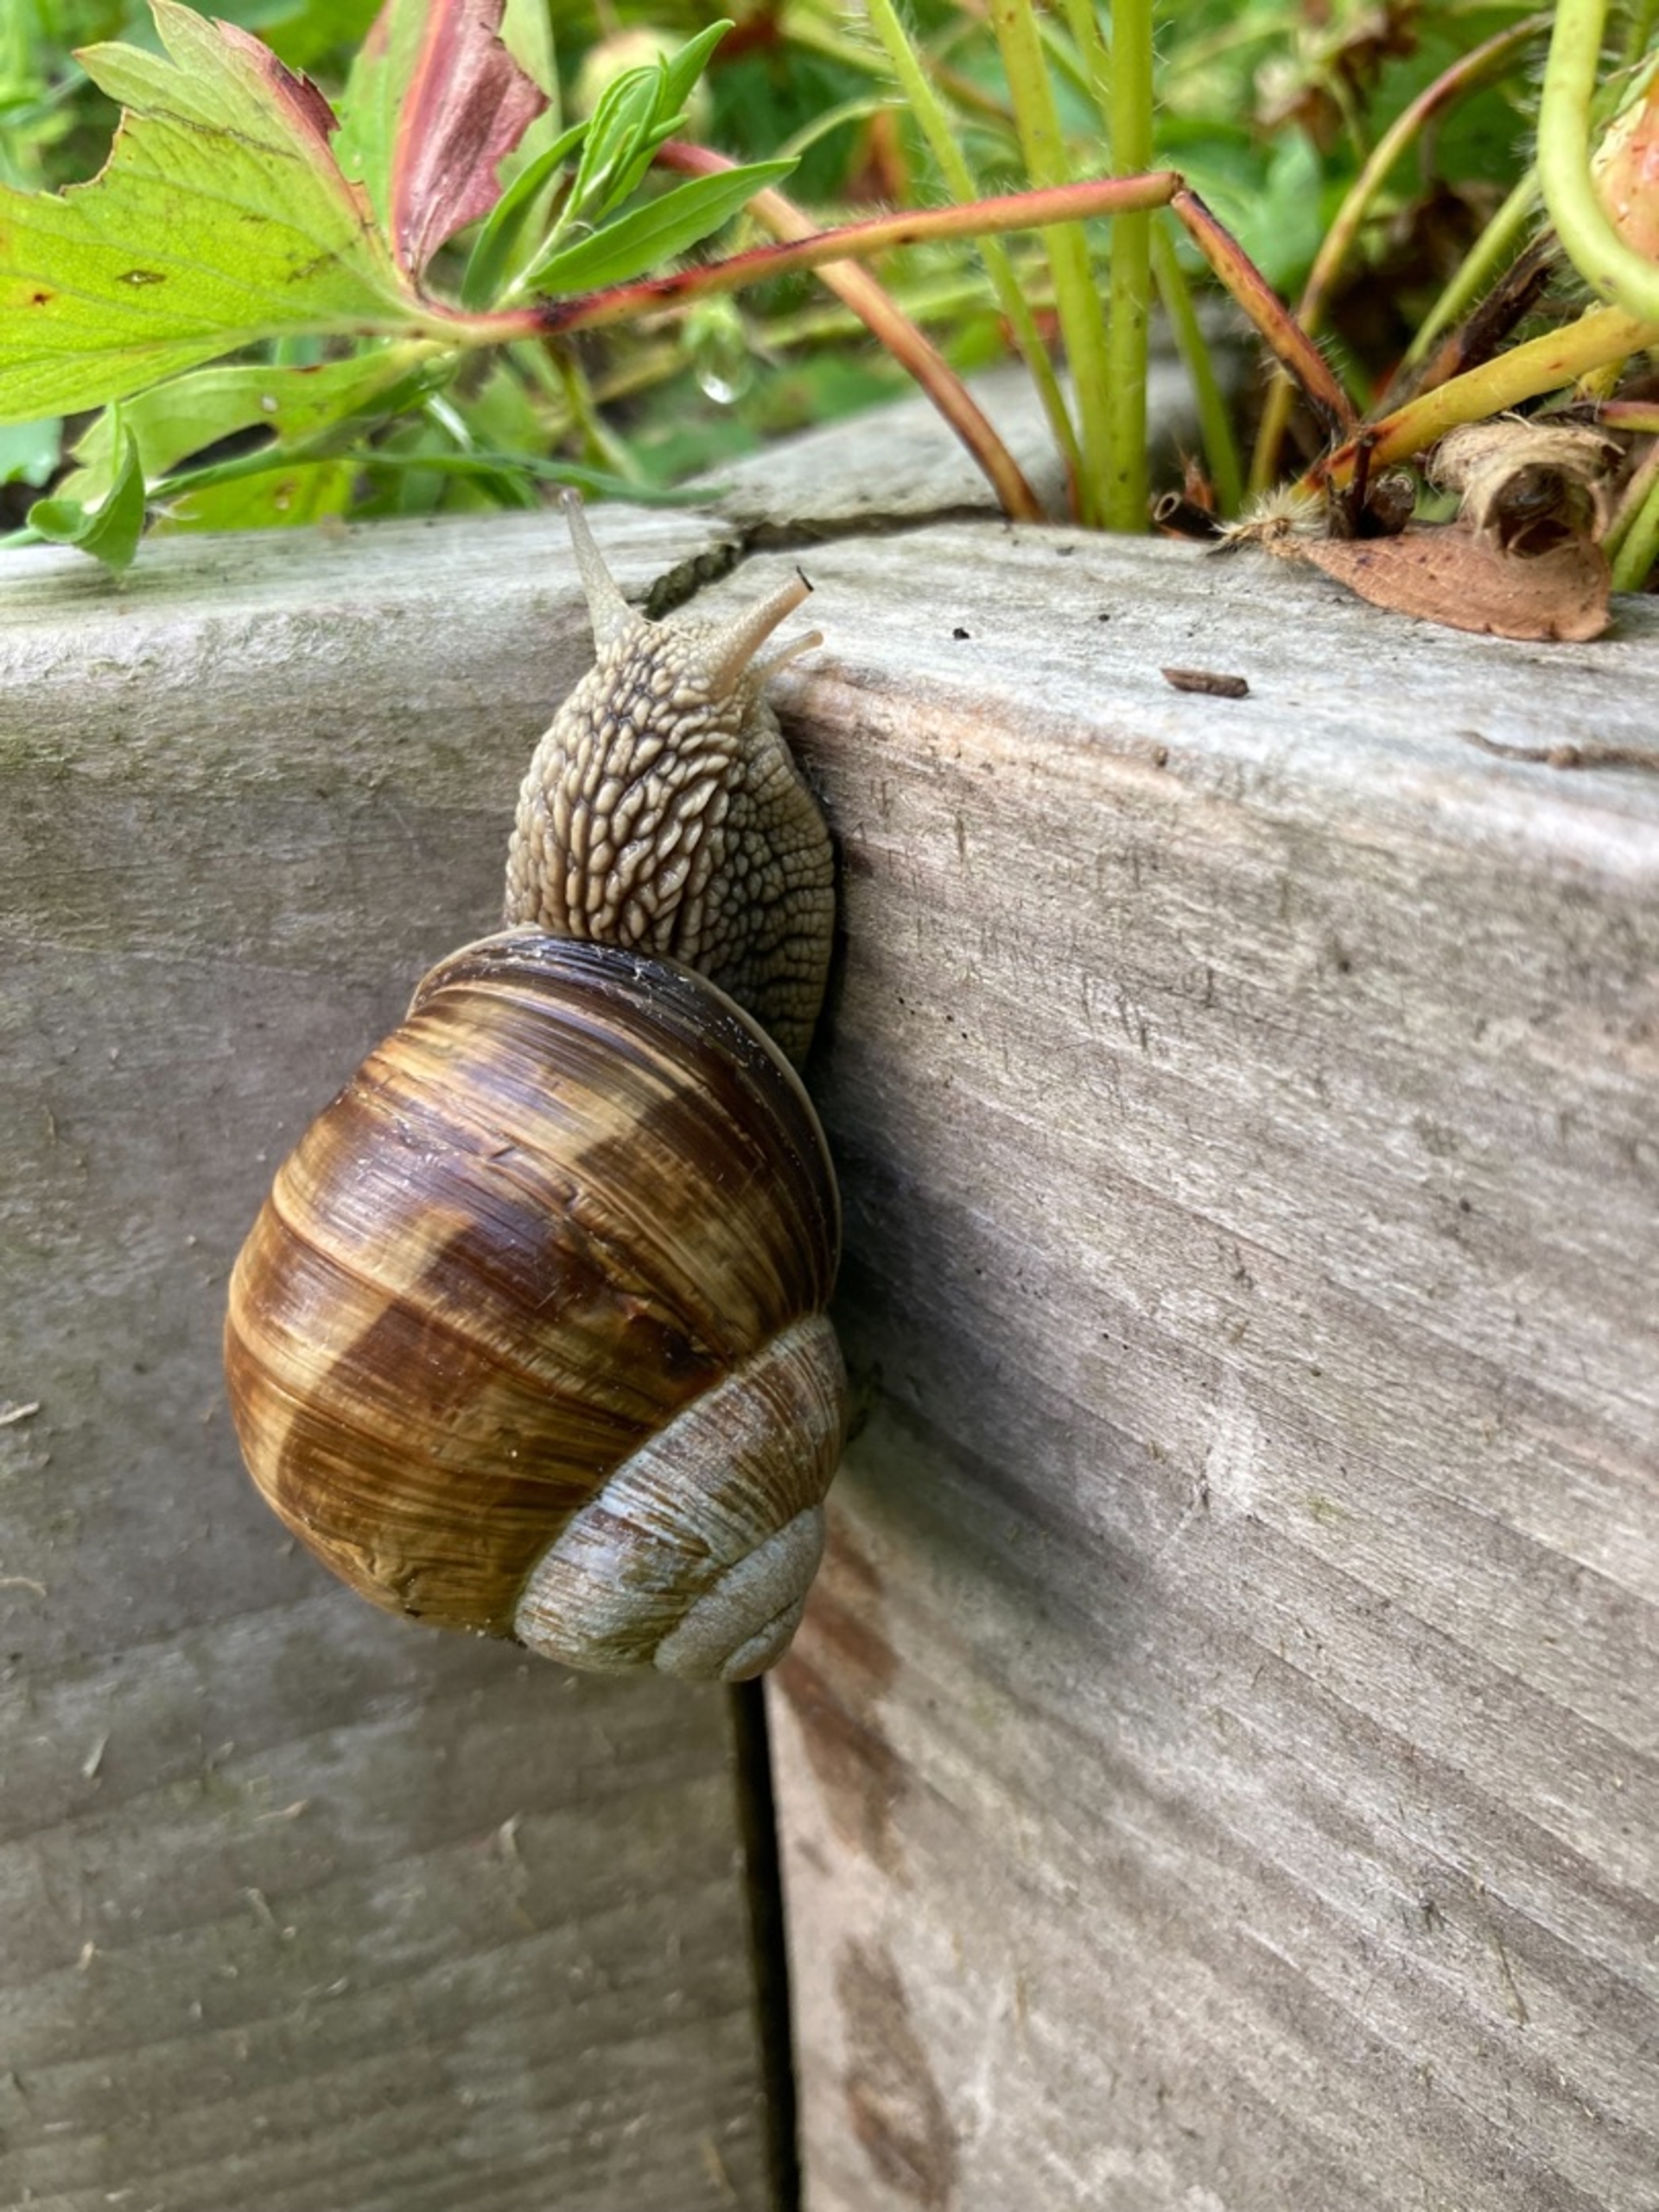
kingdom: Animalia
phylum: Mollusca
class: Gastropoda
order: Stylommatophora
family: Helicidae
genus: Helix
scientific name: Helix pomatia
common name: Vinbjergsnegl
